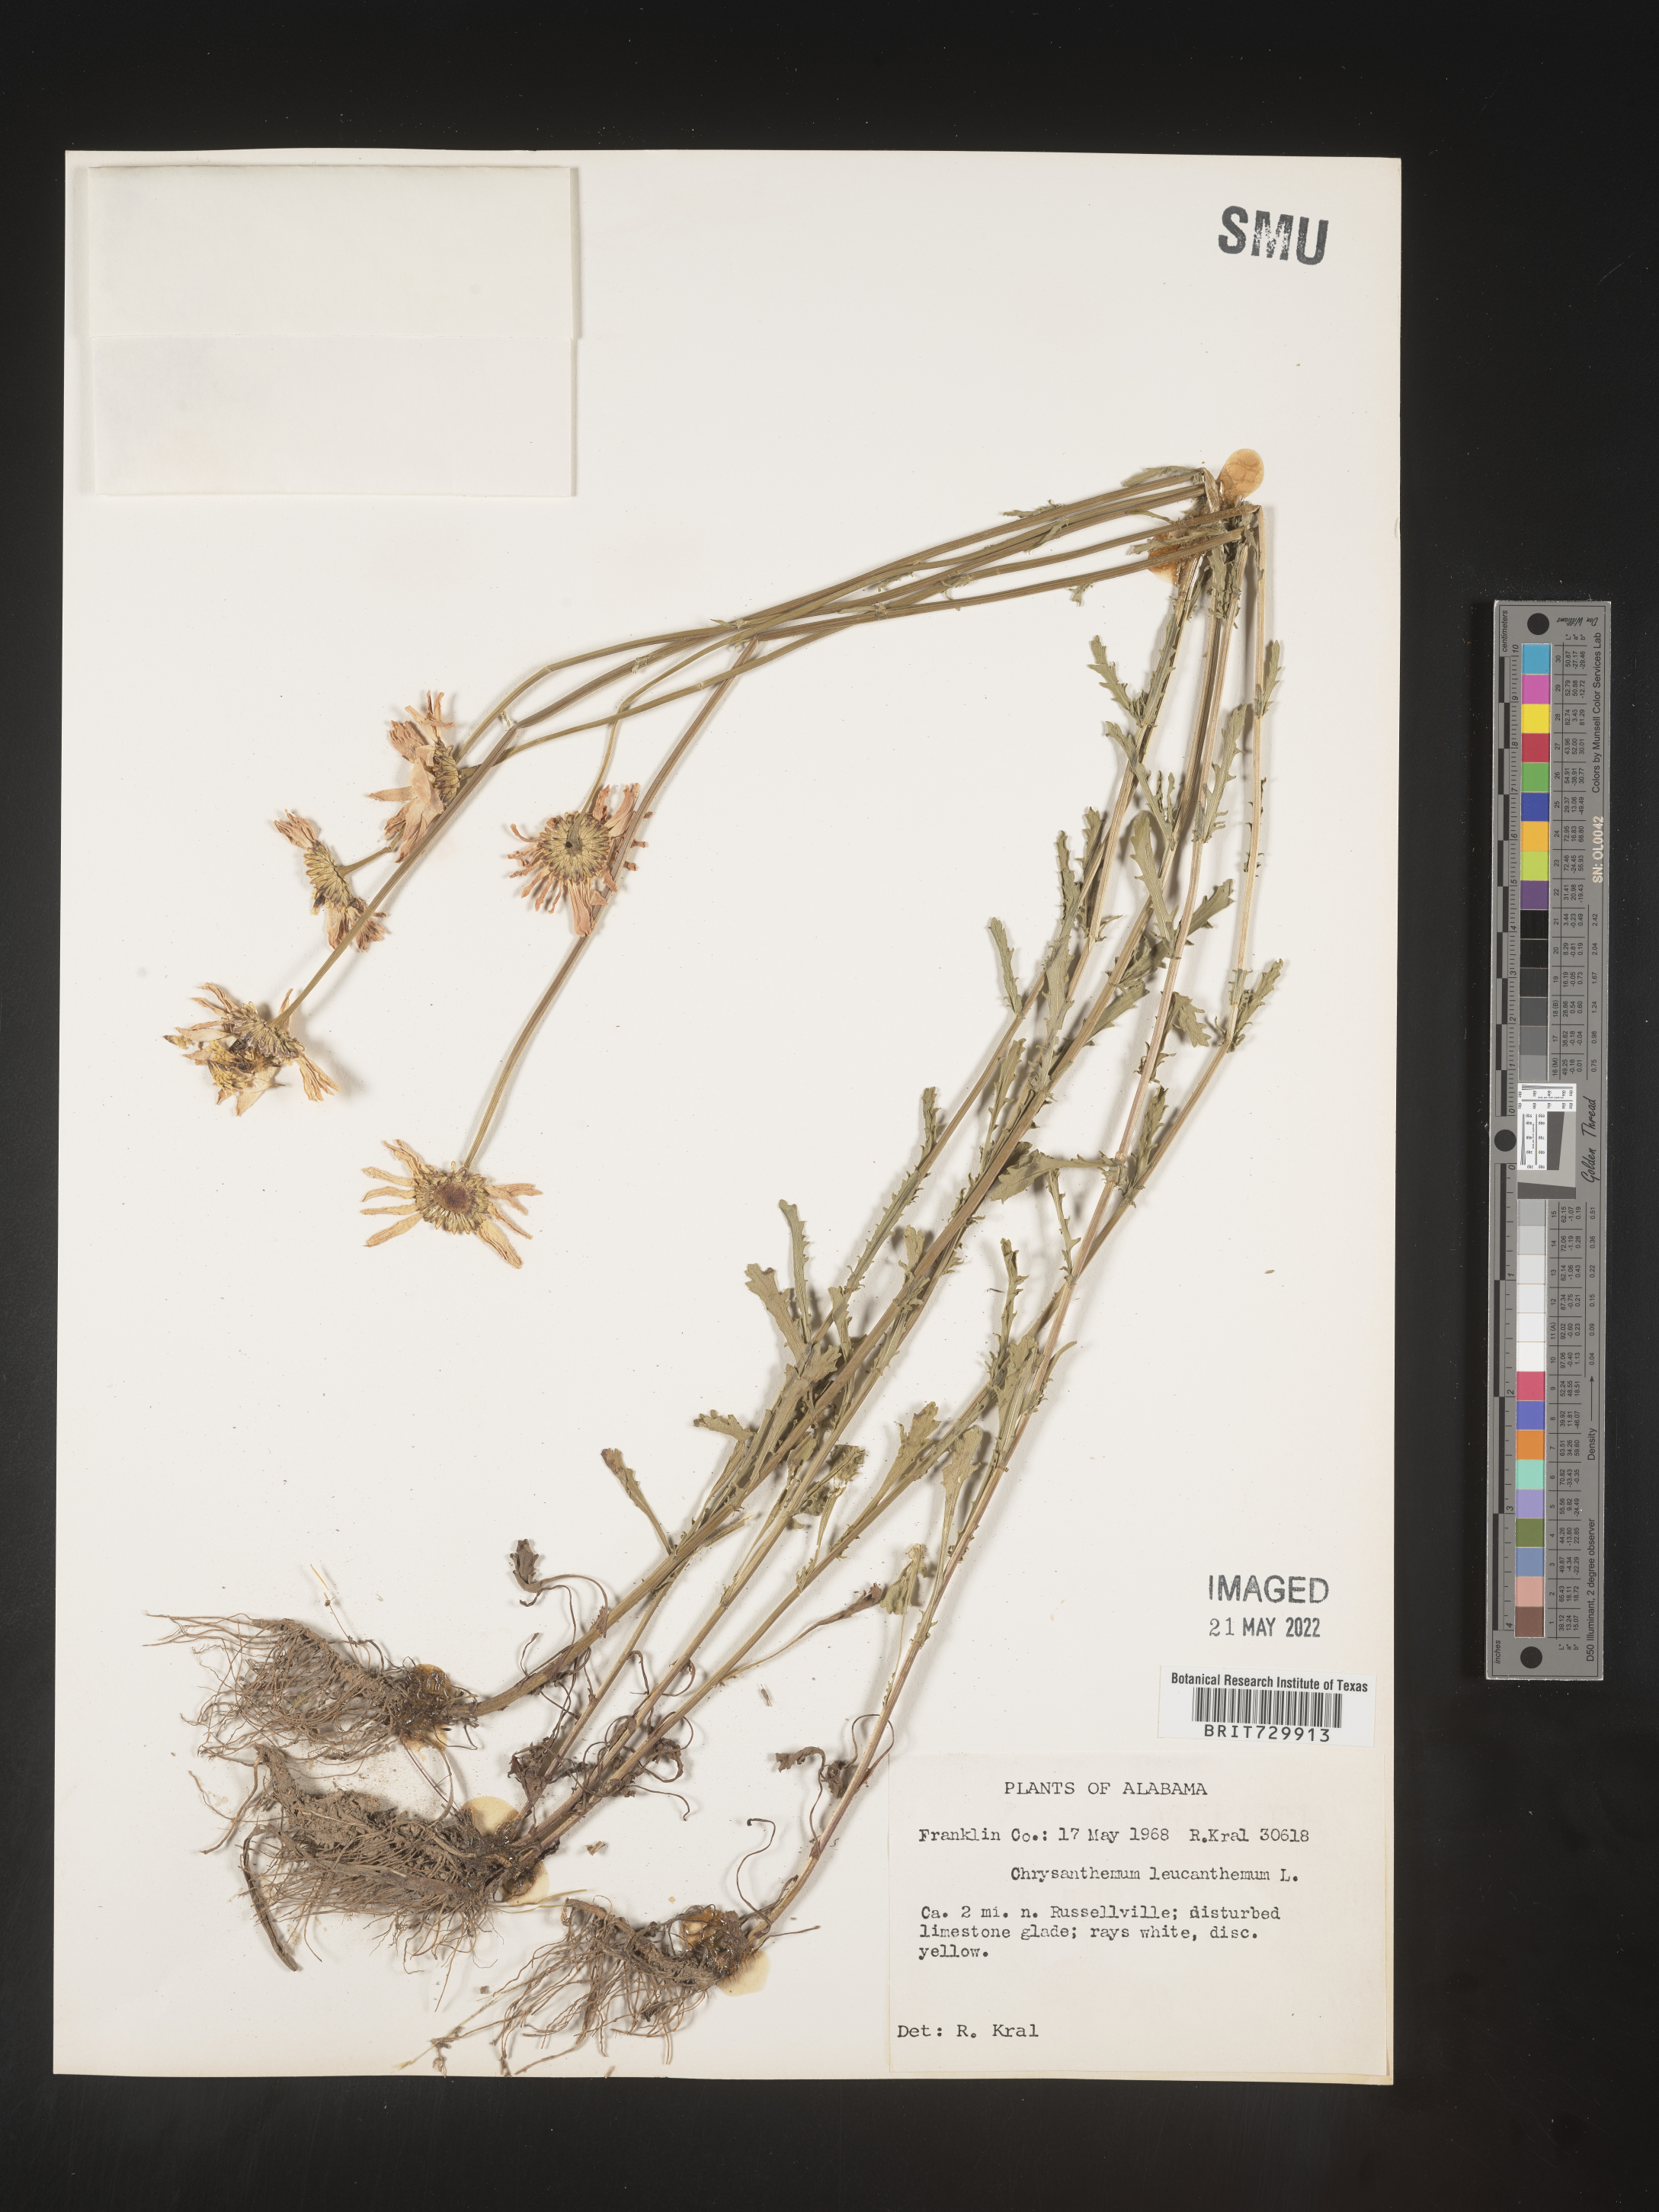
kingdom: Plantae
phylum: Tracheophyta
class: Magnoliopsida
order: Asterales
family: Asteraceae
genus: Leucanthemum
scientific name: Leucanthemum vulgare
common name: Oxeye daisy
